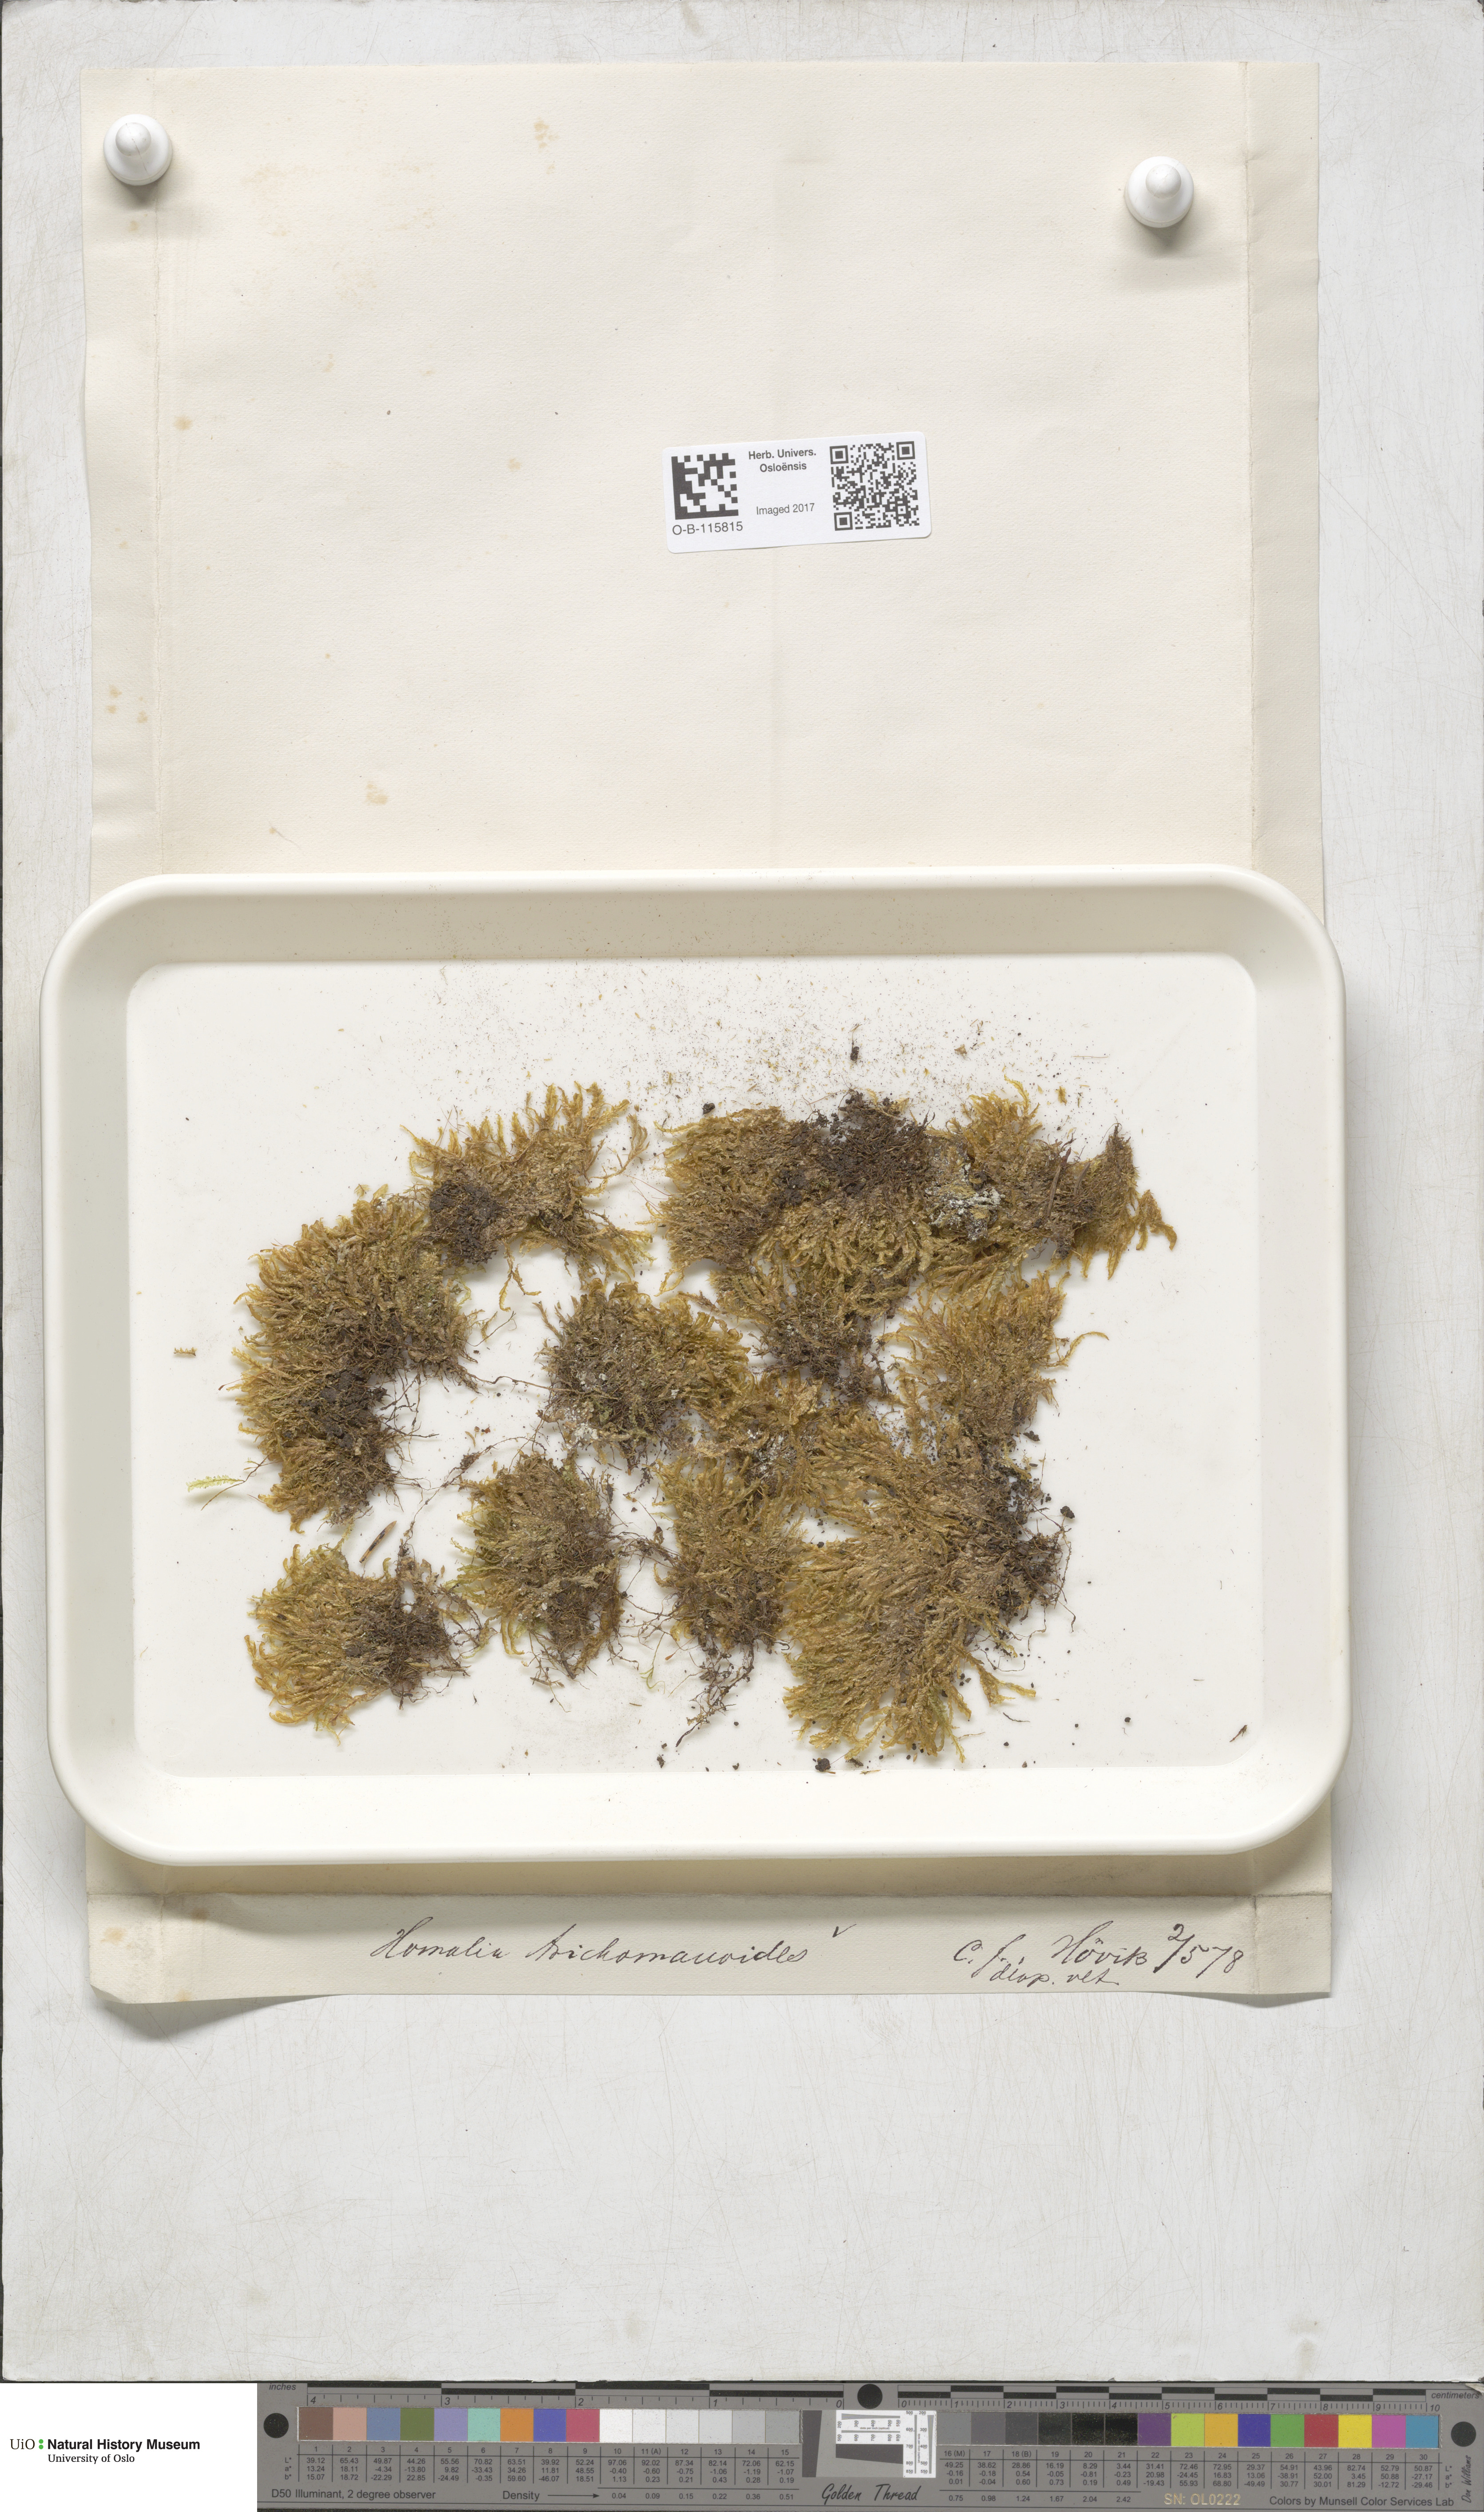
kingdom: Plantae
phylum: Bryophyta
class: Bryopsida
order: Hypnales
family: Neckeraceae
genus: Homalia
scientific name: Homalia trichomanoides
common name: Lime homalia moss
